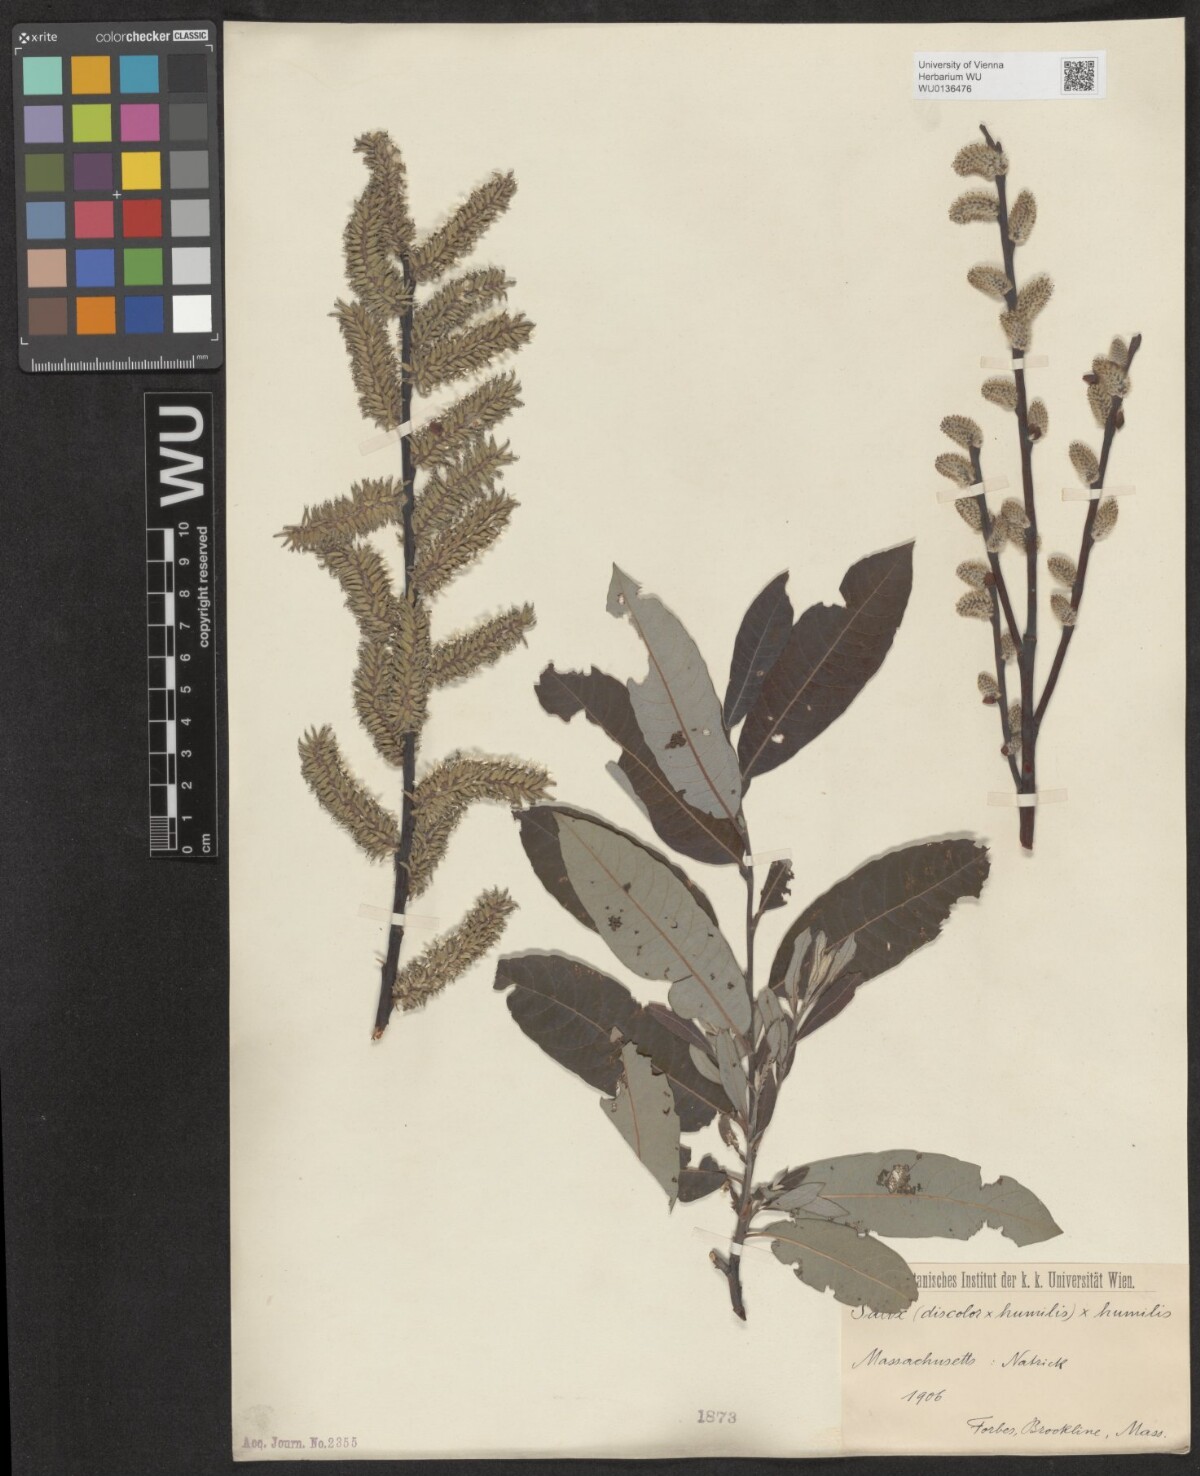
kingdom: Plantae
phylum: Tracheophyta
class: Magnoliopsida
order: Malpighiales
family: Salicaceae
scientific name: Salicaceae
